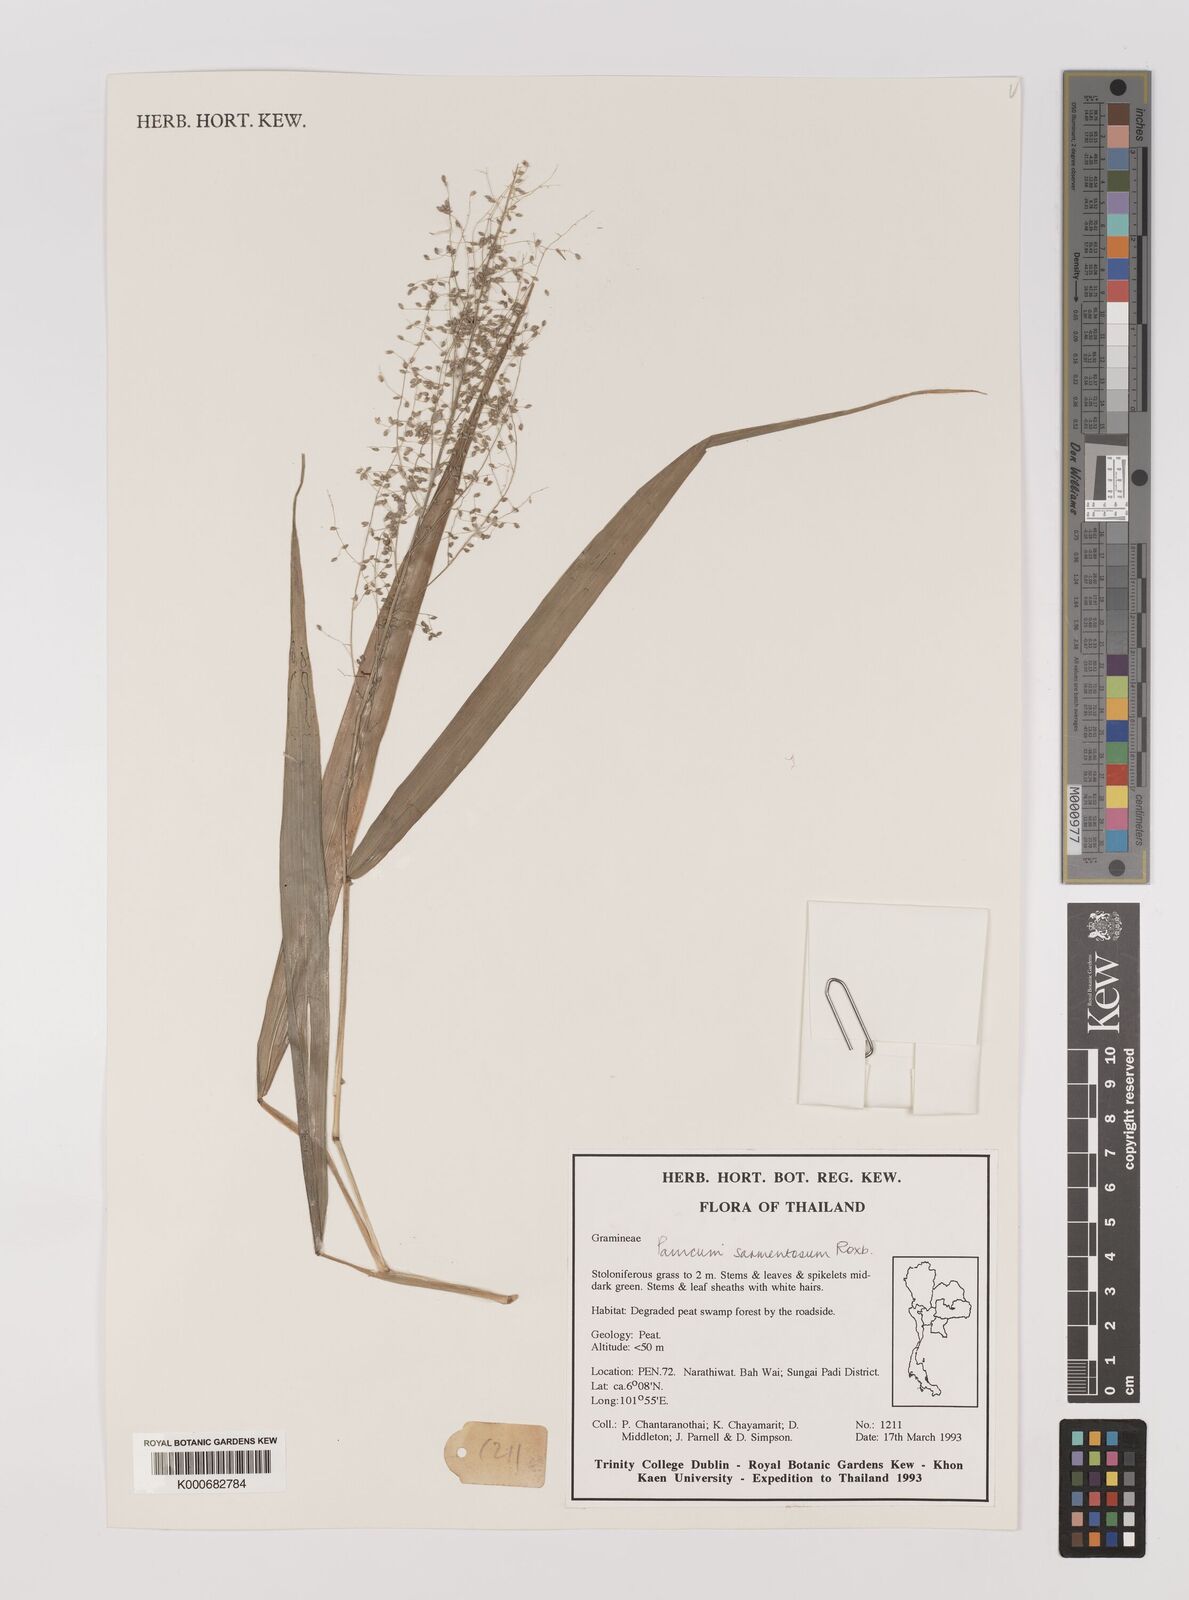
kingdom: Plantae
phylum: Tracheophyta
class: Liliopsida
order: Poales
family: Poaceae
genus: Panicum
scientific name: Panicum sarmentosum
